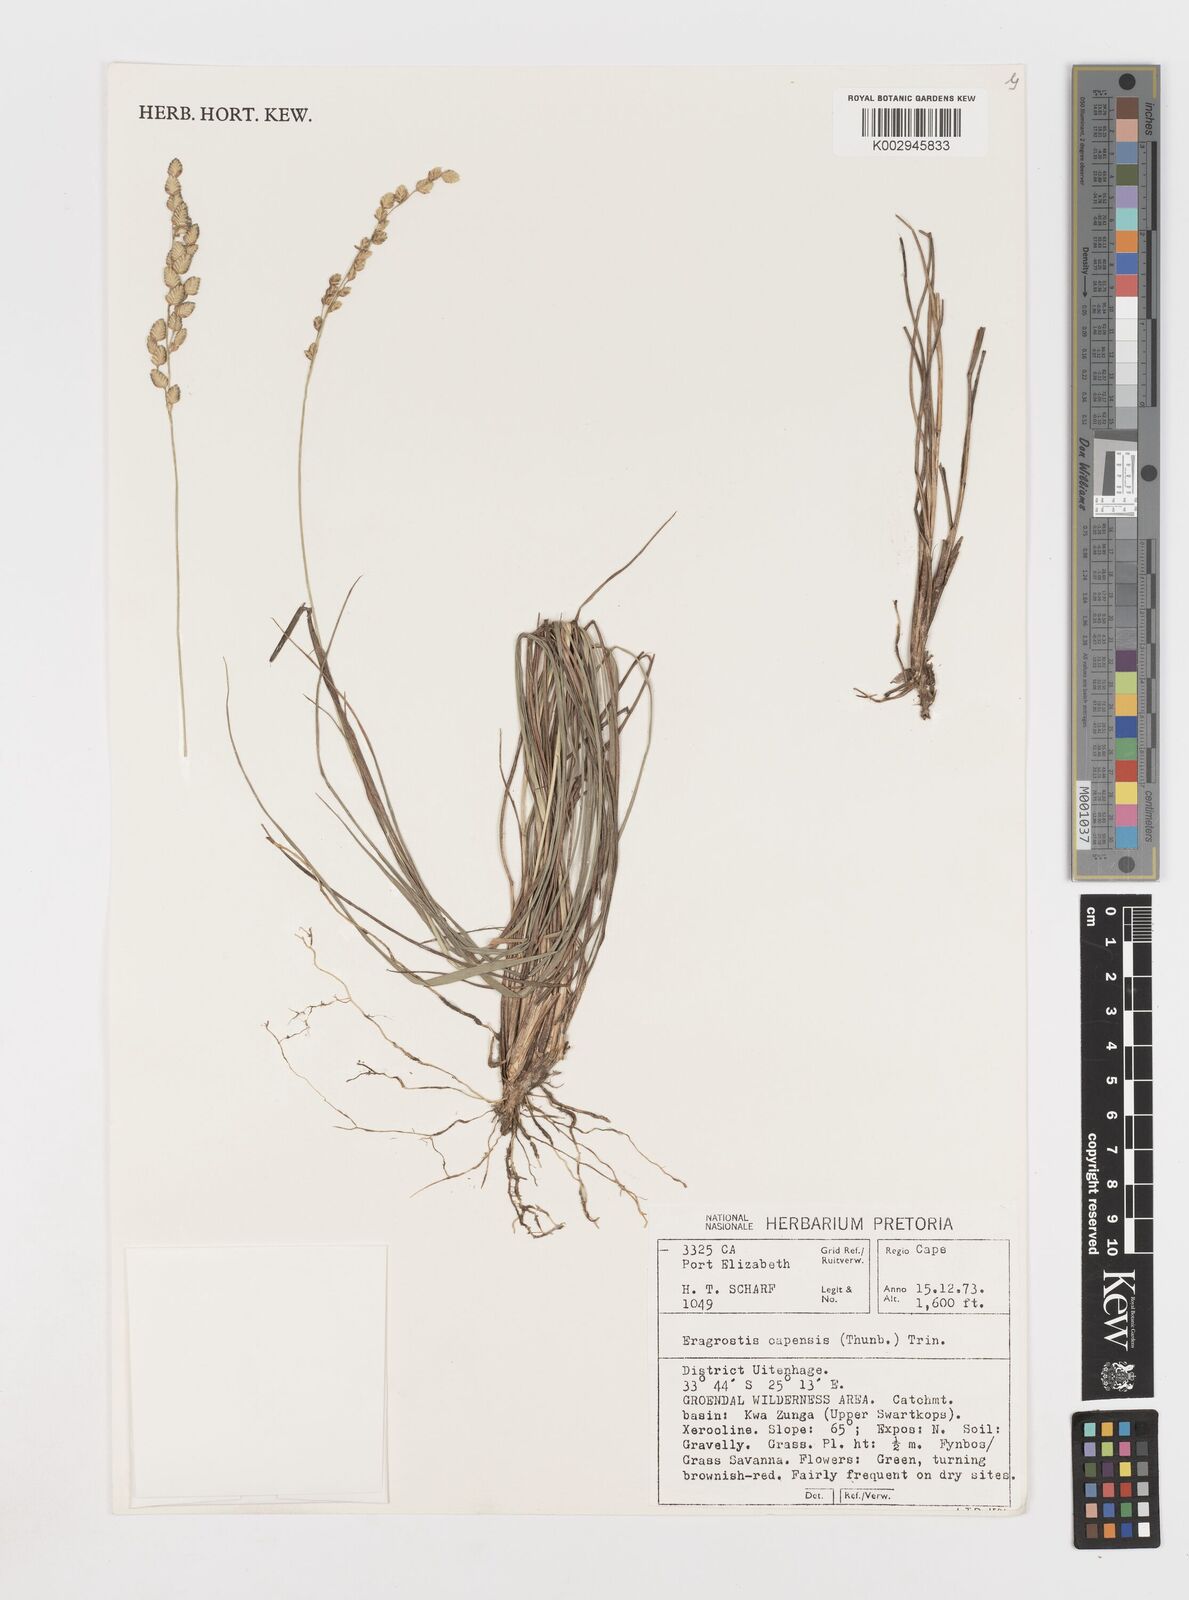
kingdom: Plantae
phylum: Tracheophyta
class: Liliopsida
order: Poales
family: Poaceae
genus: Eragrostis
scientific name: Eragrostis capensis
